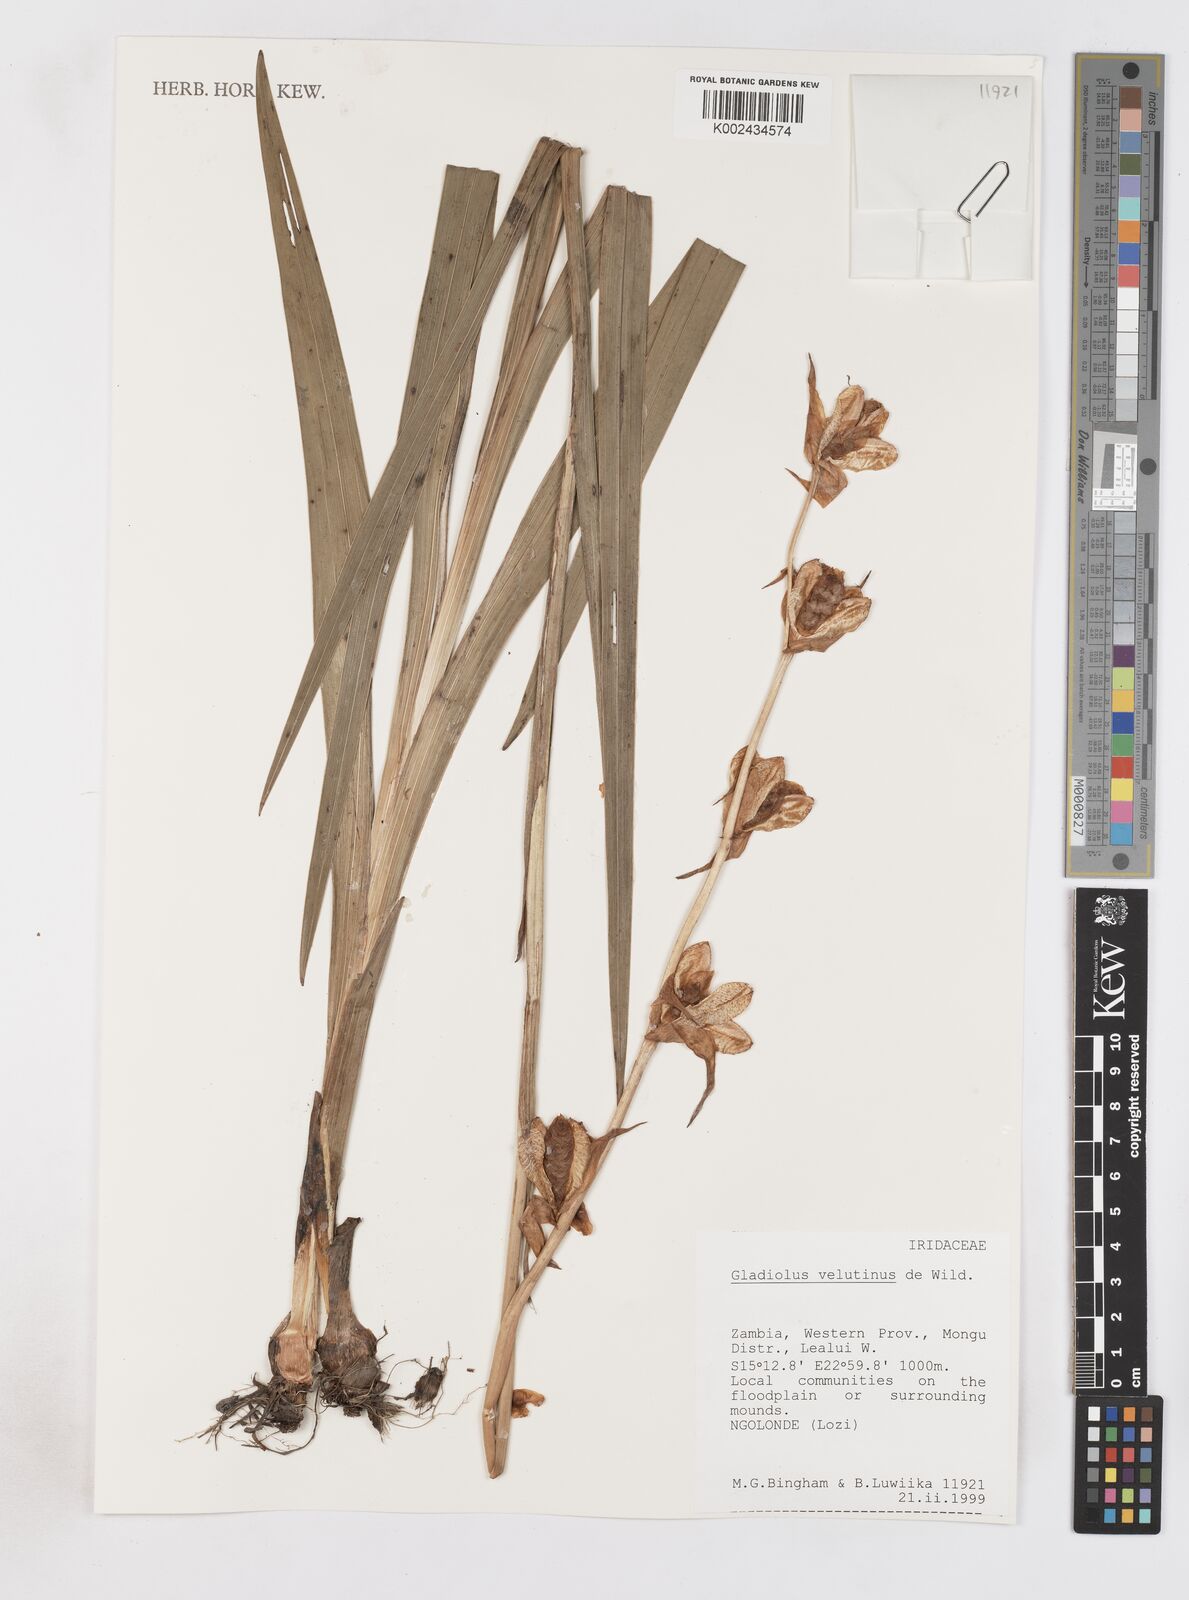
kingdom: Plantae
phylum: Tracheophyta
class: Liliopsida
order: Asparagales
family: Iridaceae
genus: Gladiolus
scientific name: Gladiolus velutinus
